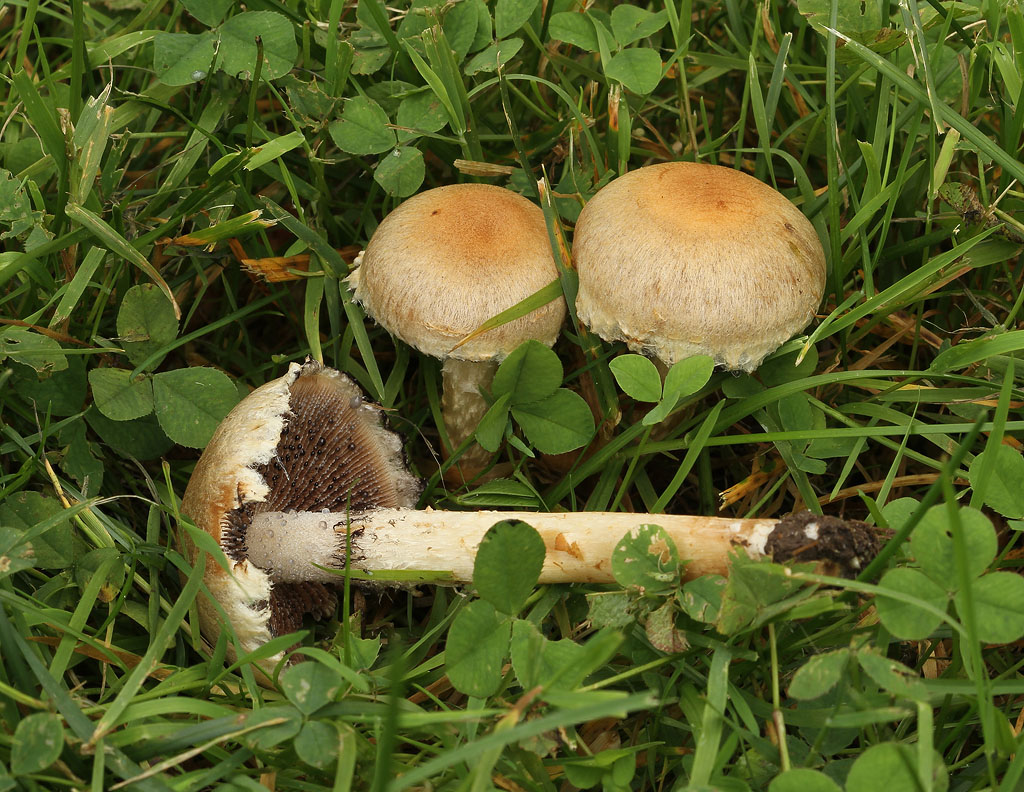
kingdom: Fungi
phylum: Basidiomycota
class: Agaricomycetes
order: Agaricales
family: Psathyrellaceae
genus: Lacrymaria
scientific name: Lacrymaria lacrymabunda
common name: grædende mørkhat
